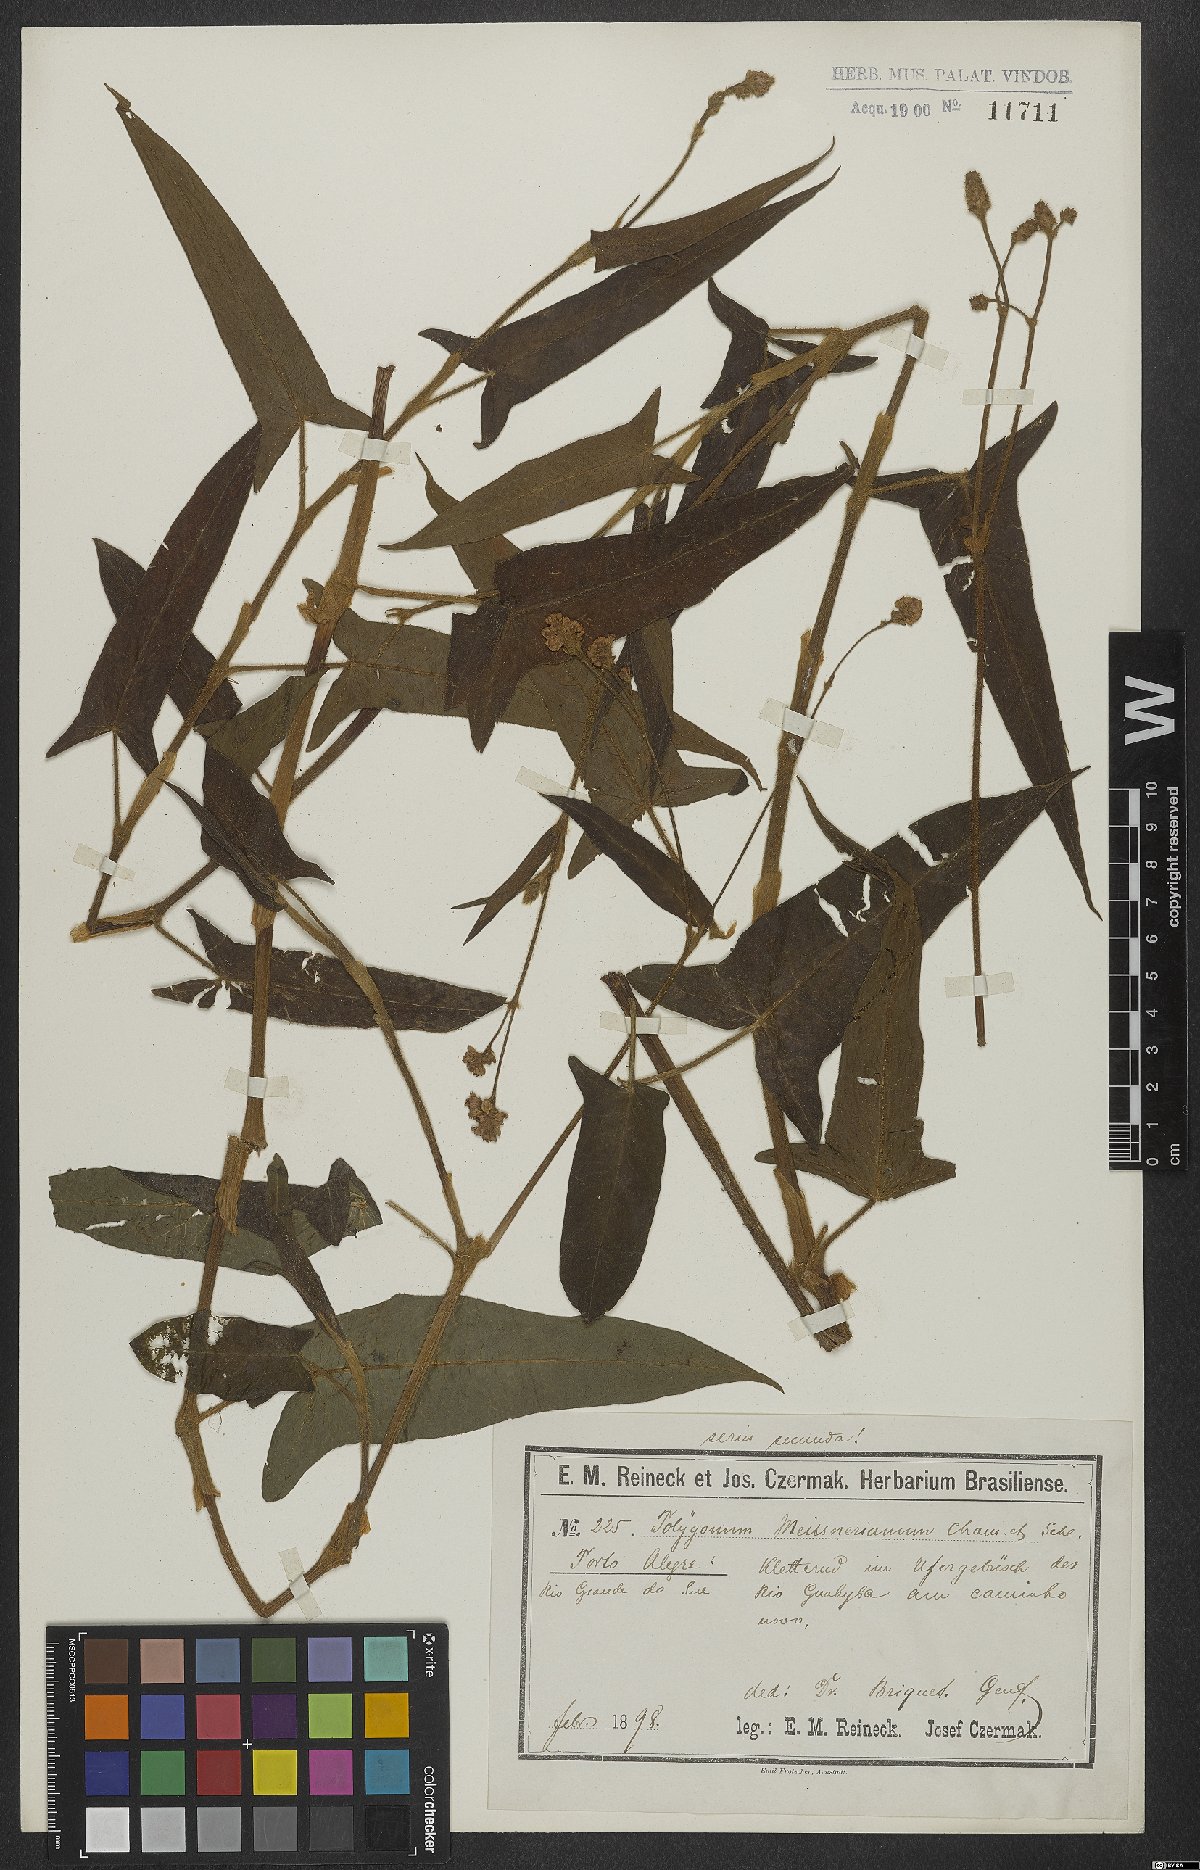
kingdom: Plantae
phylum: Tracheophyta
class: Magnoliopsida
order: Caryophyllales
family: Polygonaceae
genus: Persicaria
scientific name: Persicaria meisneriana
